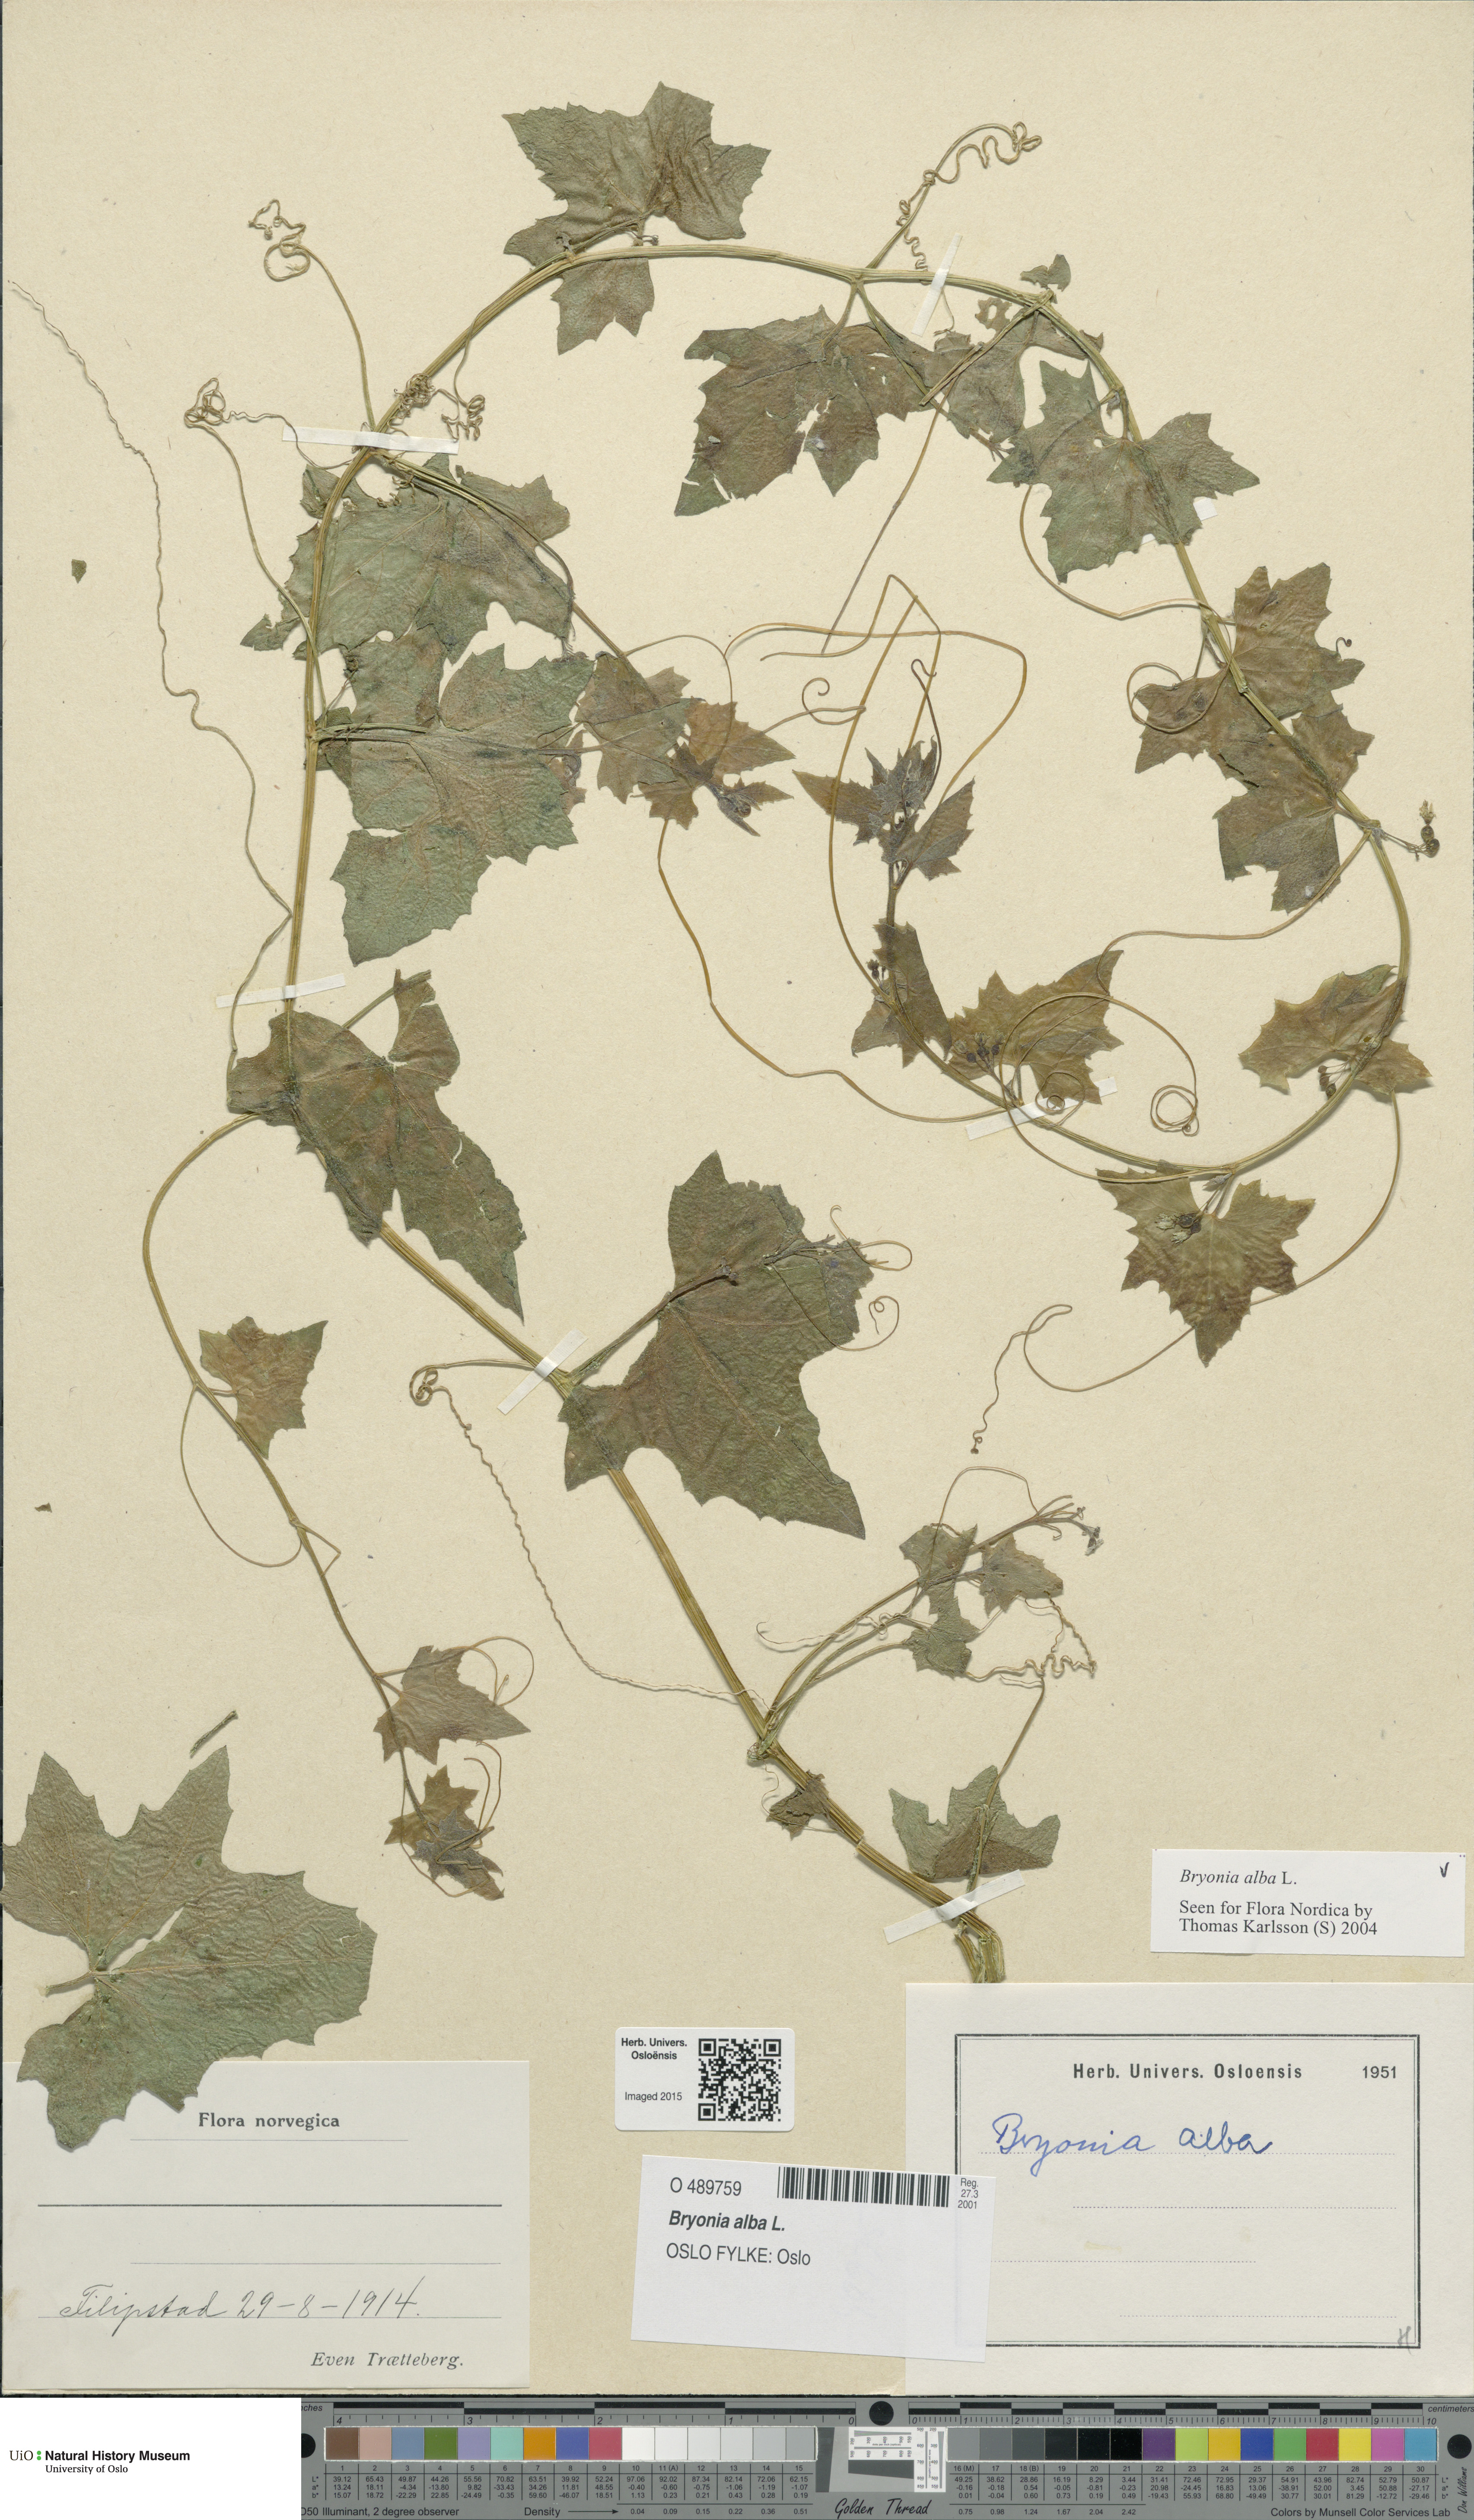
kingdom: Plantae
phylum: Tracheophyta
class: Magnoliopsida
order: Cucurbitales
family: Cucurbitaceae
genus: Bryonia
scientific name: Bryonia alba
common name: White bryony
